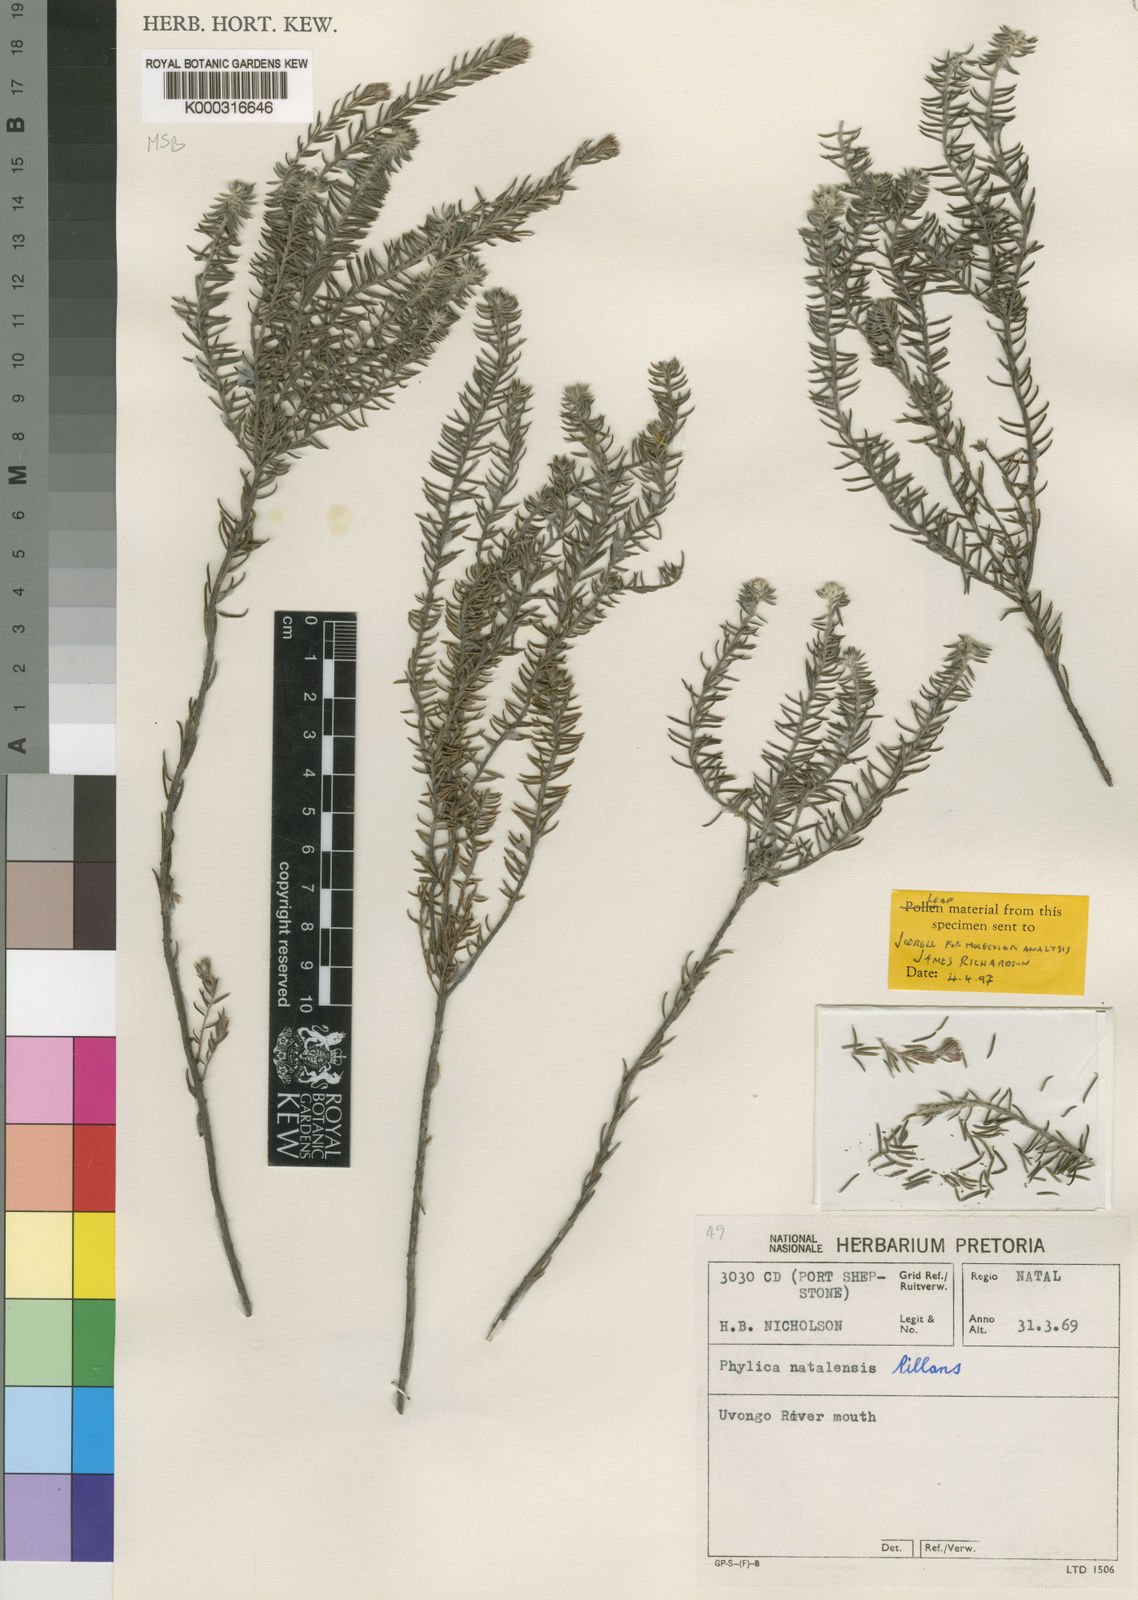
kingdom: Plantae
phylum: Tracheophyta
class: Magnoliopsida
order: Rosales
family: Rhamnaceae
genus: Phylica
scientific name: Phylica natalensis
